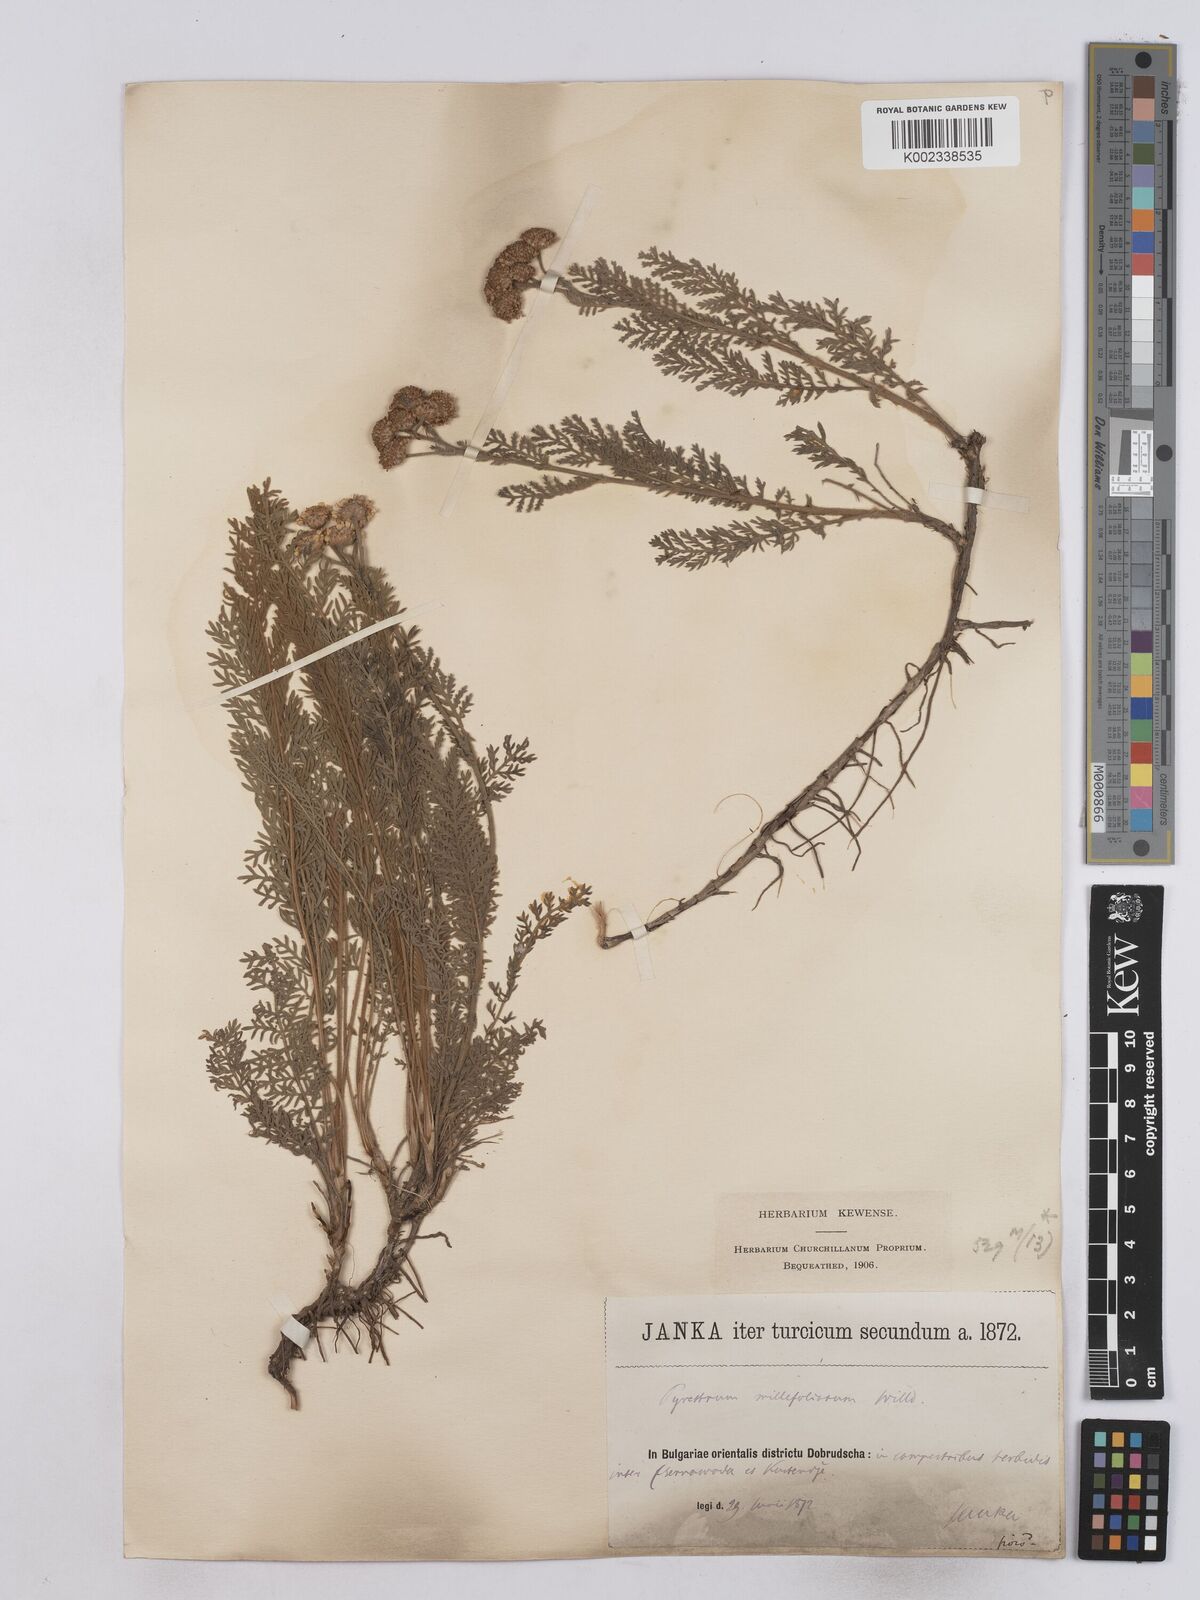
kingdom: Plantae
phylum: Tracheophyta
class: Magnoliopsida
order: Asterales
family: Asteraceae
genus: Tanacetum
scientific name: Tanacetum millefolium
